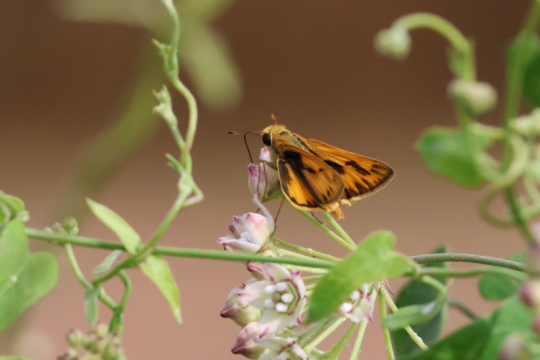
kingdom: Animalia
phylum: Arthropoda
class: Insecta
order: Lepidoptera
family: Hesperiidae
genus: Hylephila
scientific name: Hylephila phyleus
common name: Fiery Skipper
